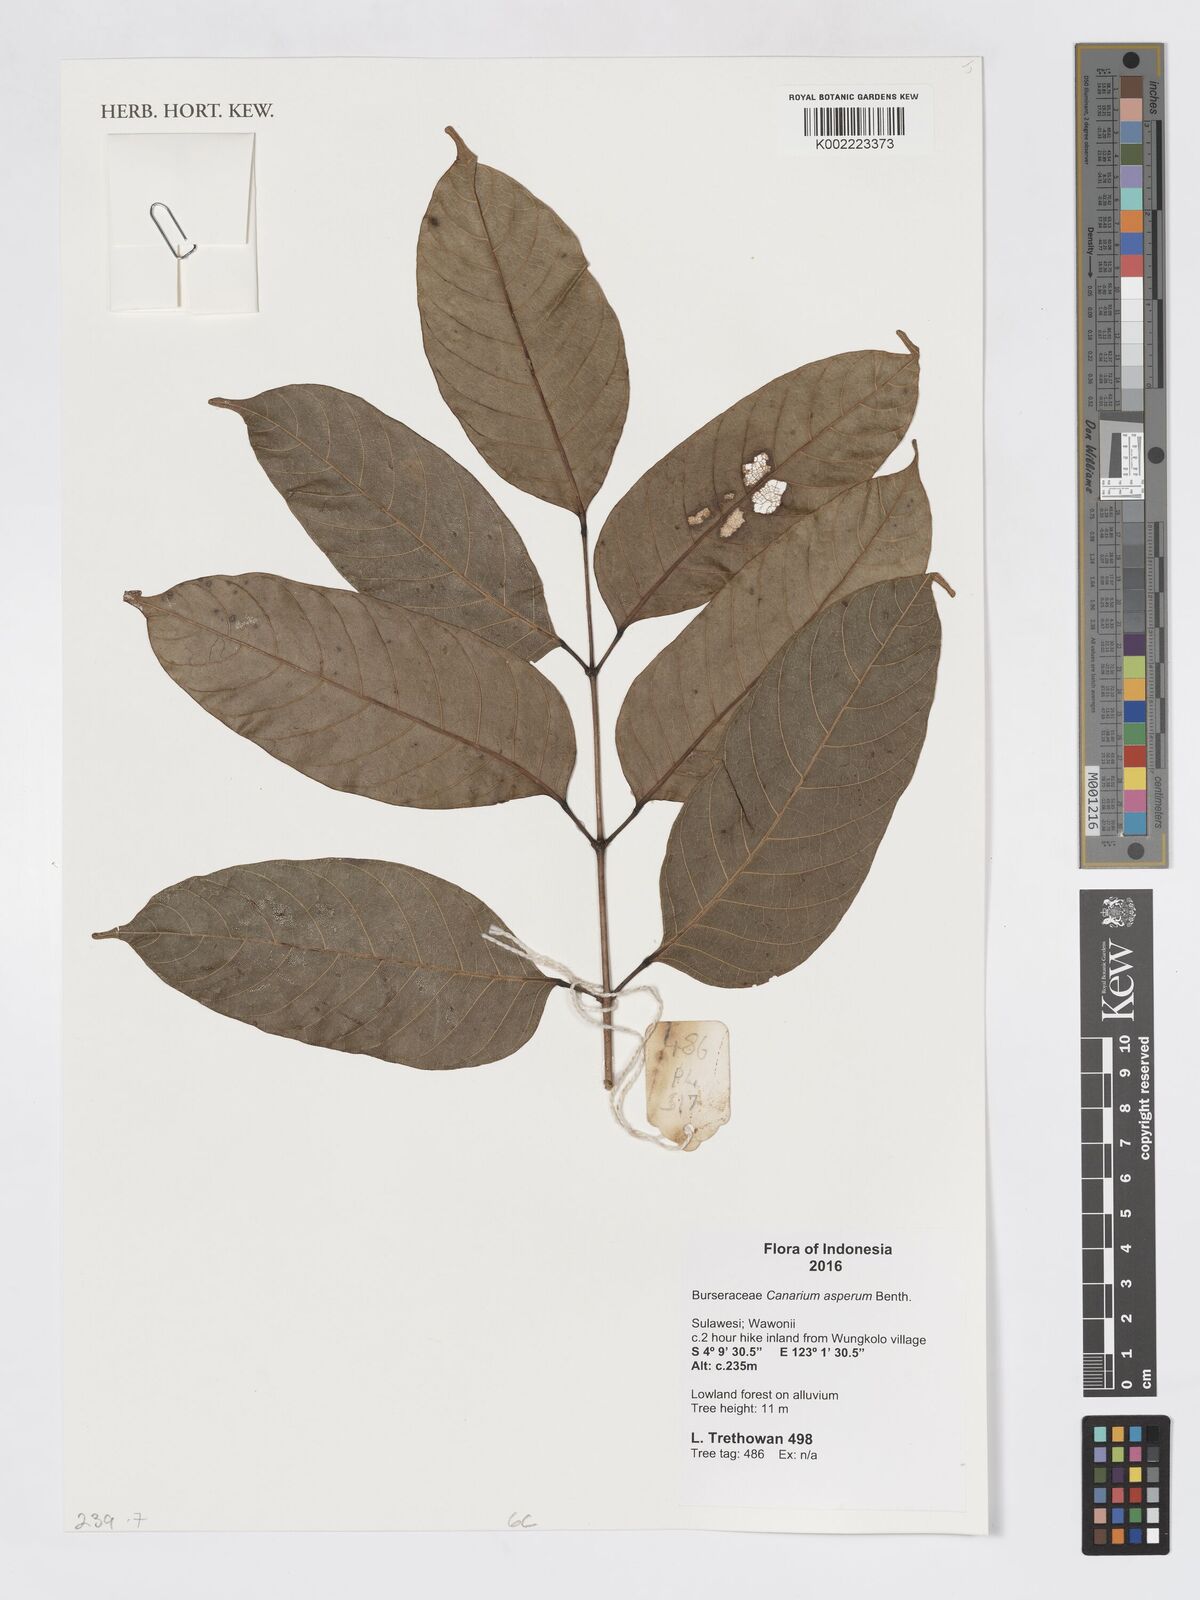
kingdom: Plantae
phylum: Tracheophyta
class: Magnoliopsida
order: Sapindales
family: Burseraceae
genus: Canarium
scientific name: Canarium asperum
